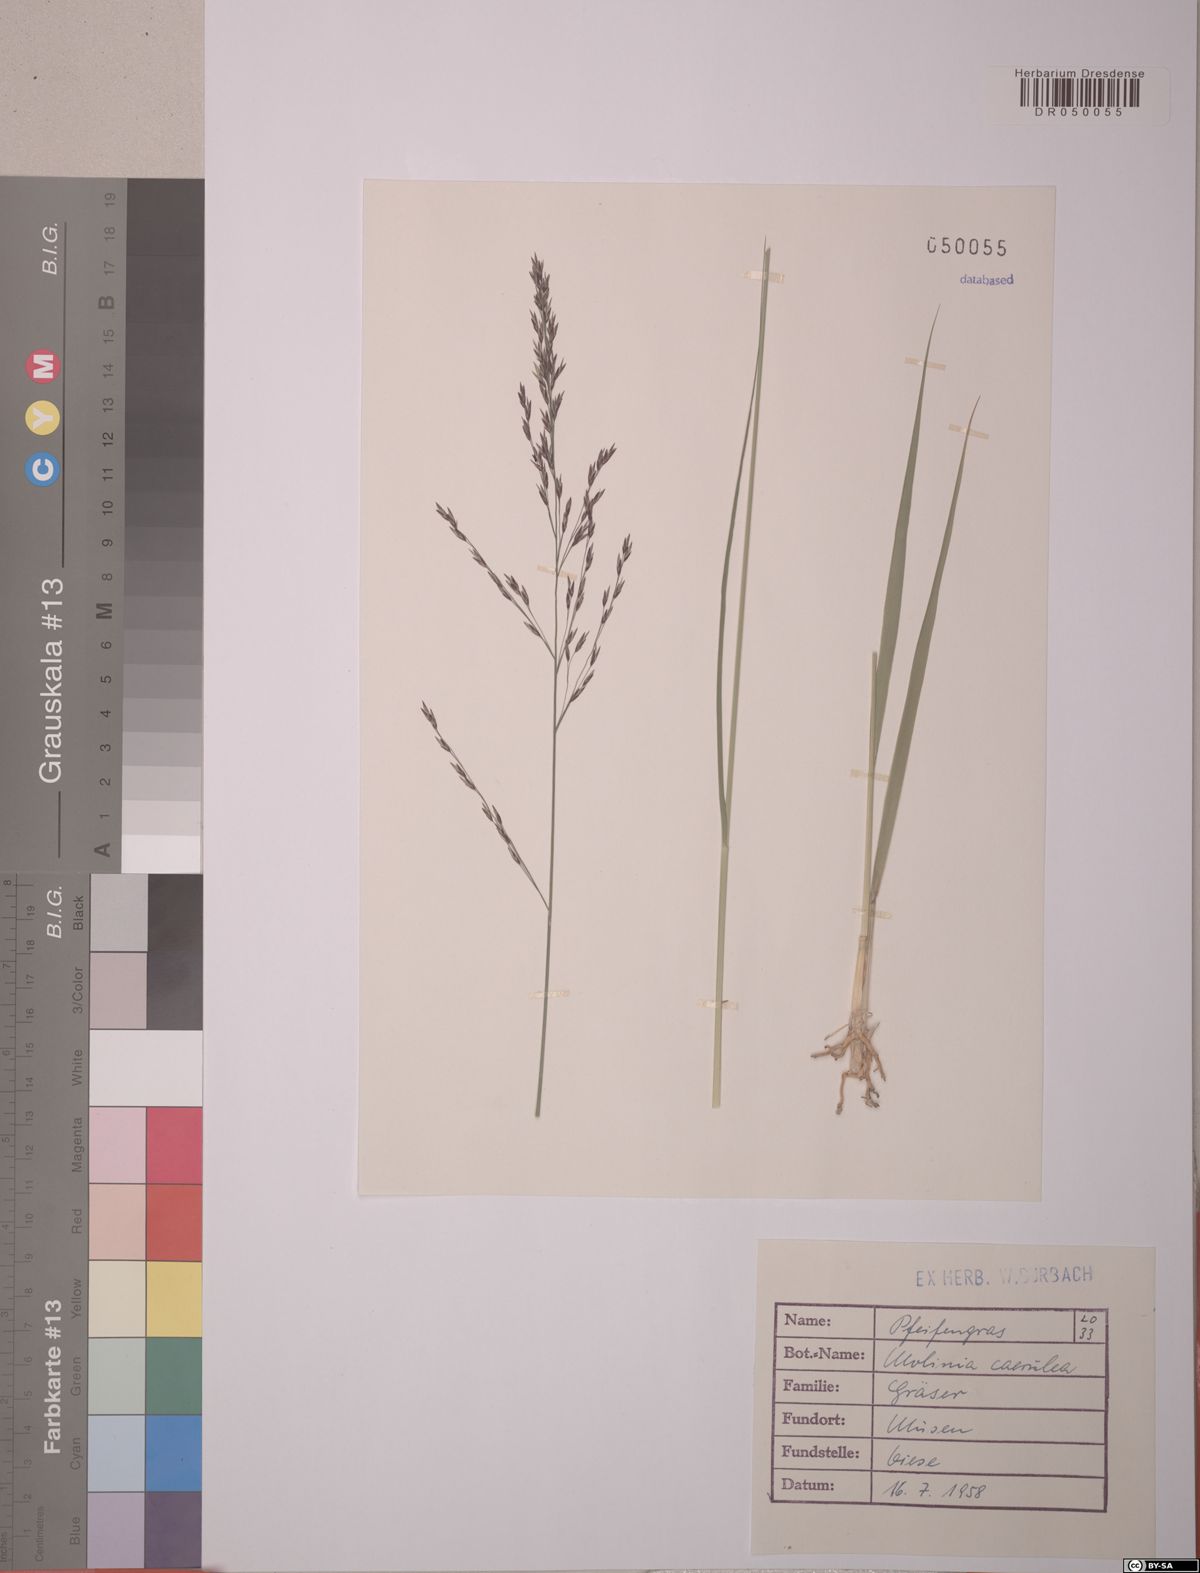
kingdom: Plantae
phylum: Tracheophyta
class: Liliopsida
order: Poales
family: Poaceae
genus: Molinia
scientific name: Molinia caerulea
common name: Purple moor-grass
